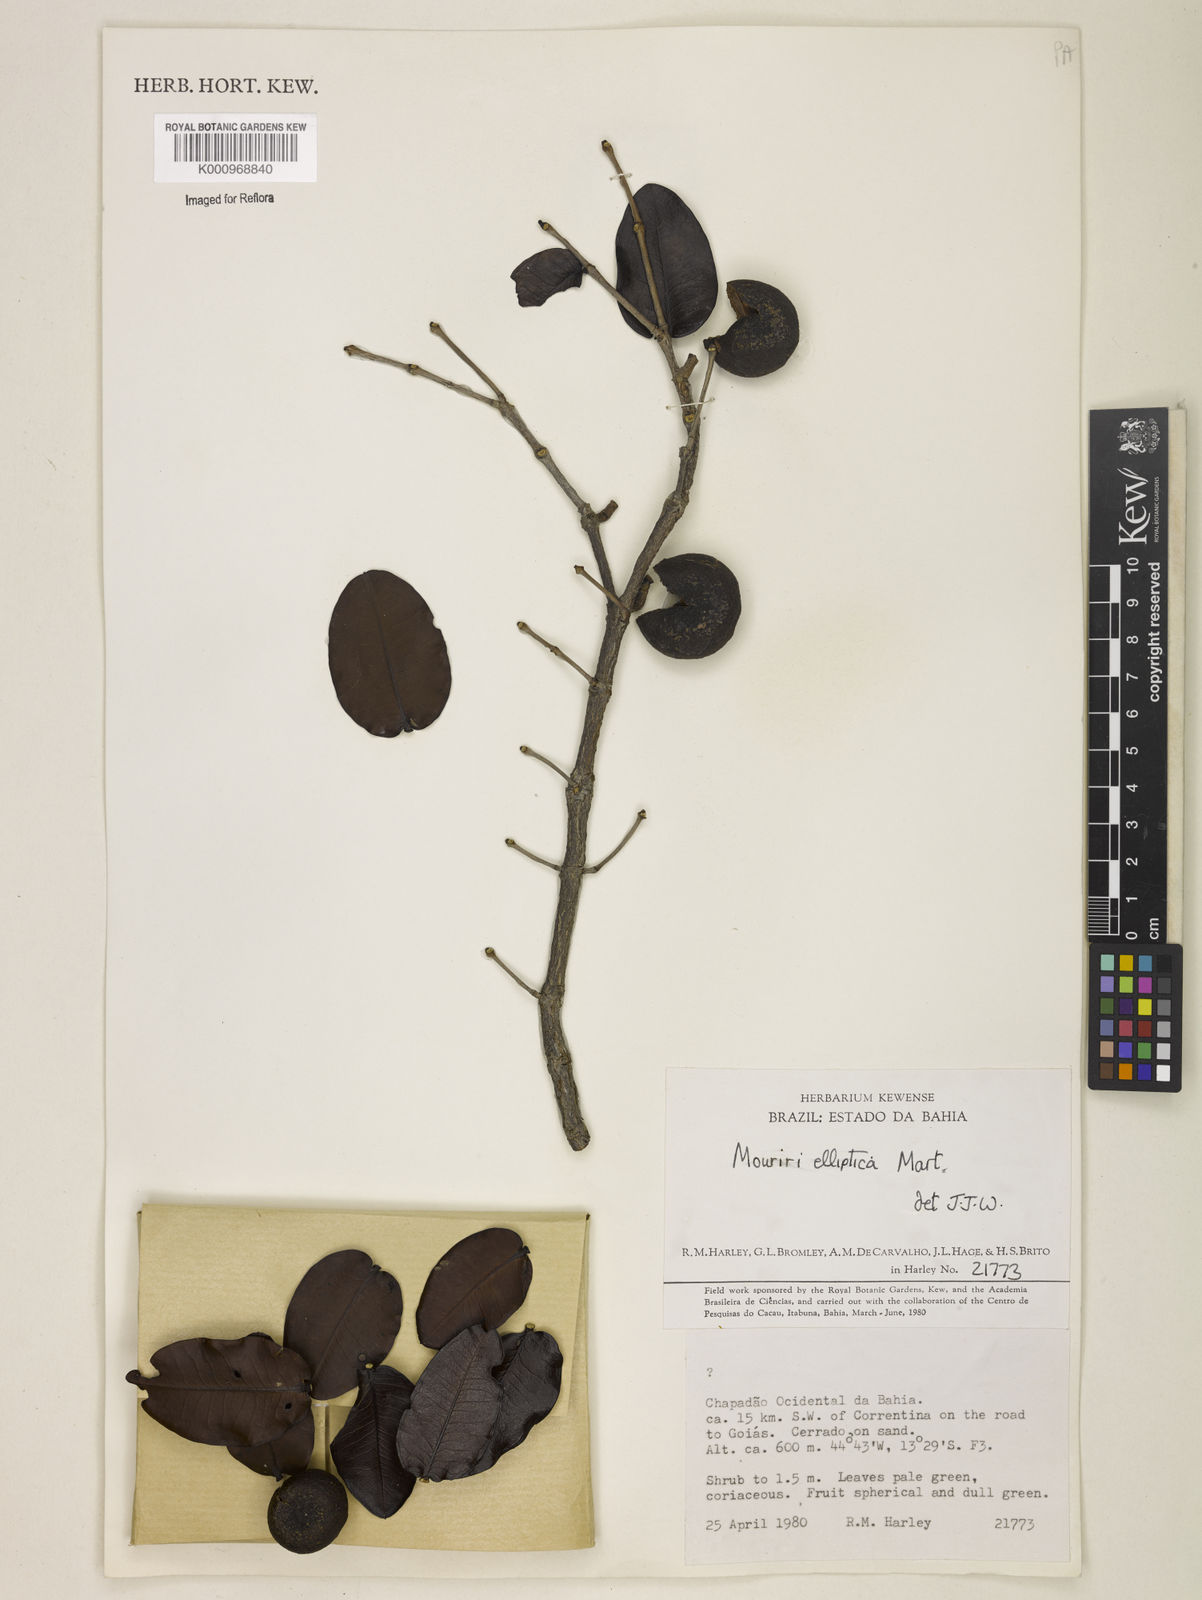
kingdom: Plantae
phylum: Tracheophyta
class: Magnoliopsida
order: Myrtales
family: Melastomataceae
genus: Mouriri
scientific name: Mouriri elliptica
